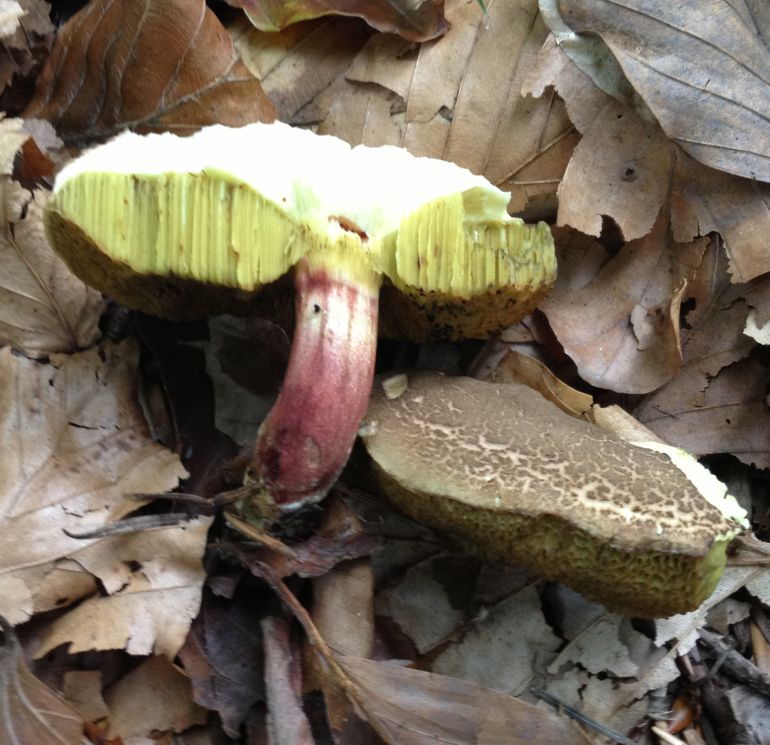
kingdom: Fungi
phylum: Basidiomycota
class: Agaricomycetes
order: Boletales
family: Boletaceae
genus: Xerocomellus
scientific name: Xerocomellus chrysenteron
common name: rødsprukken rørhat
